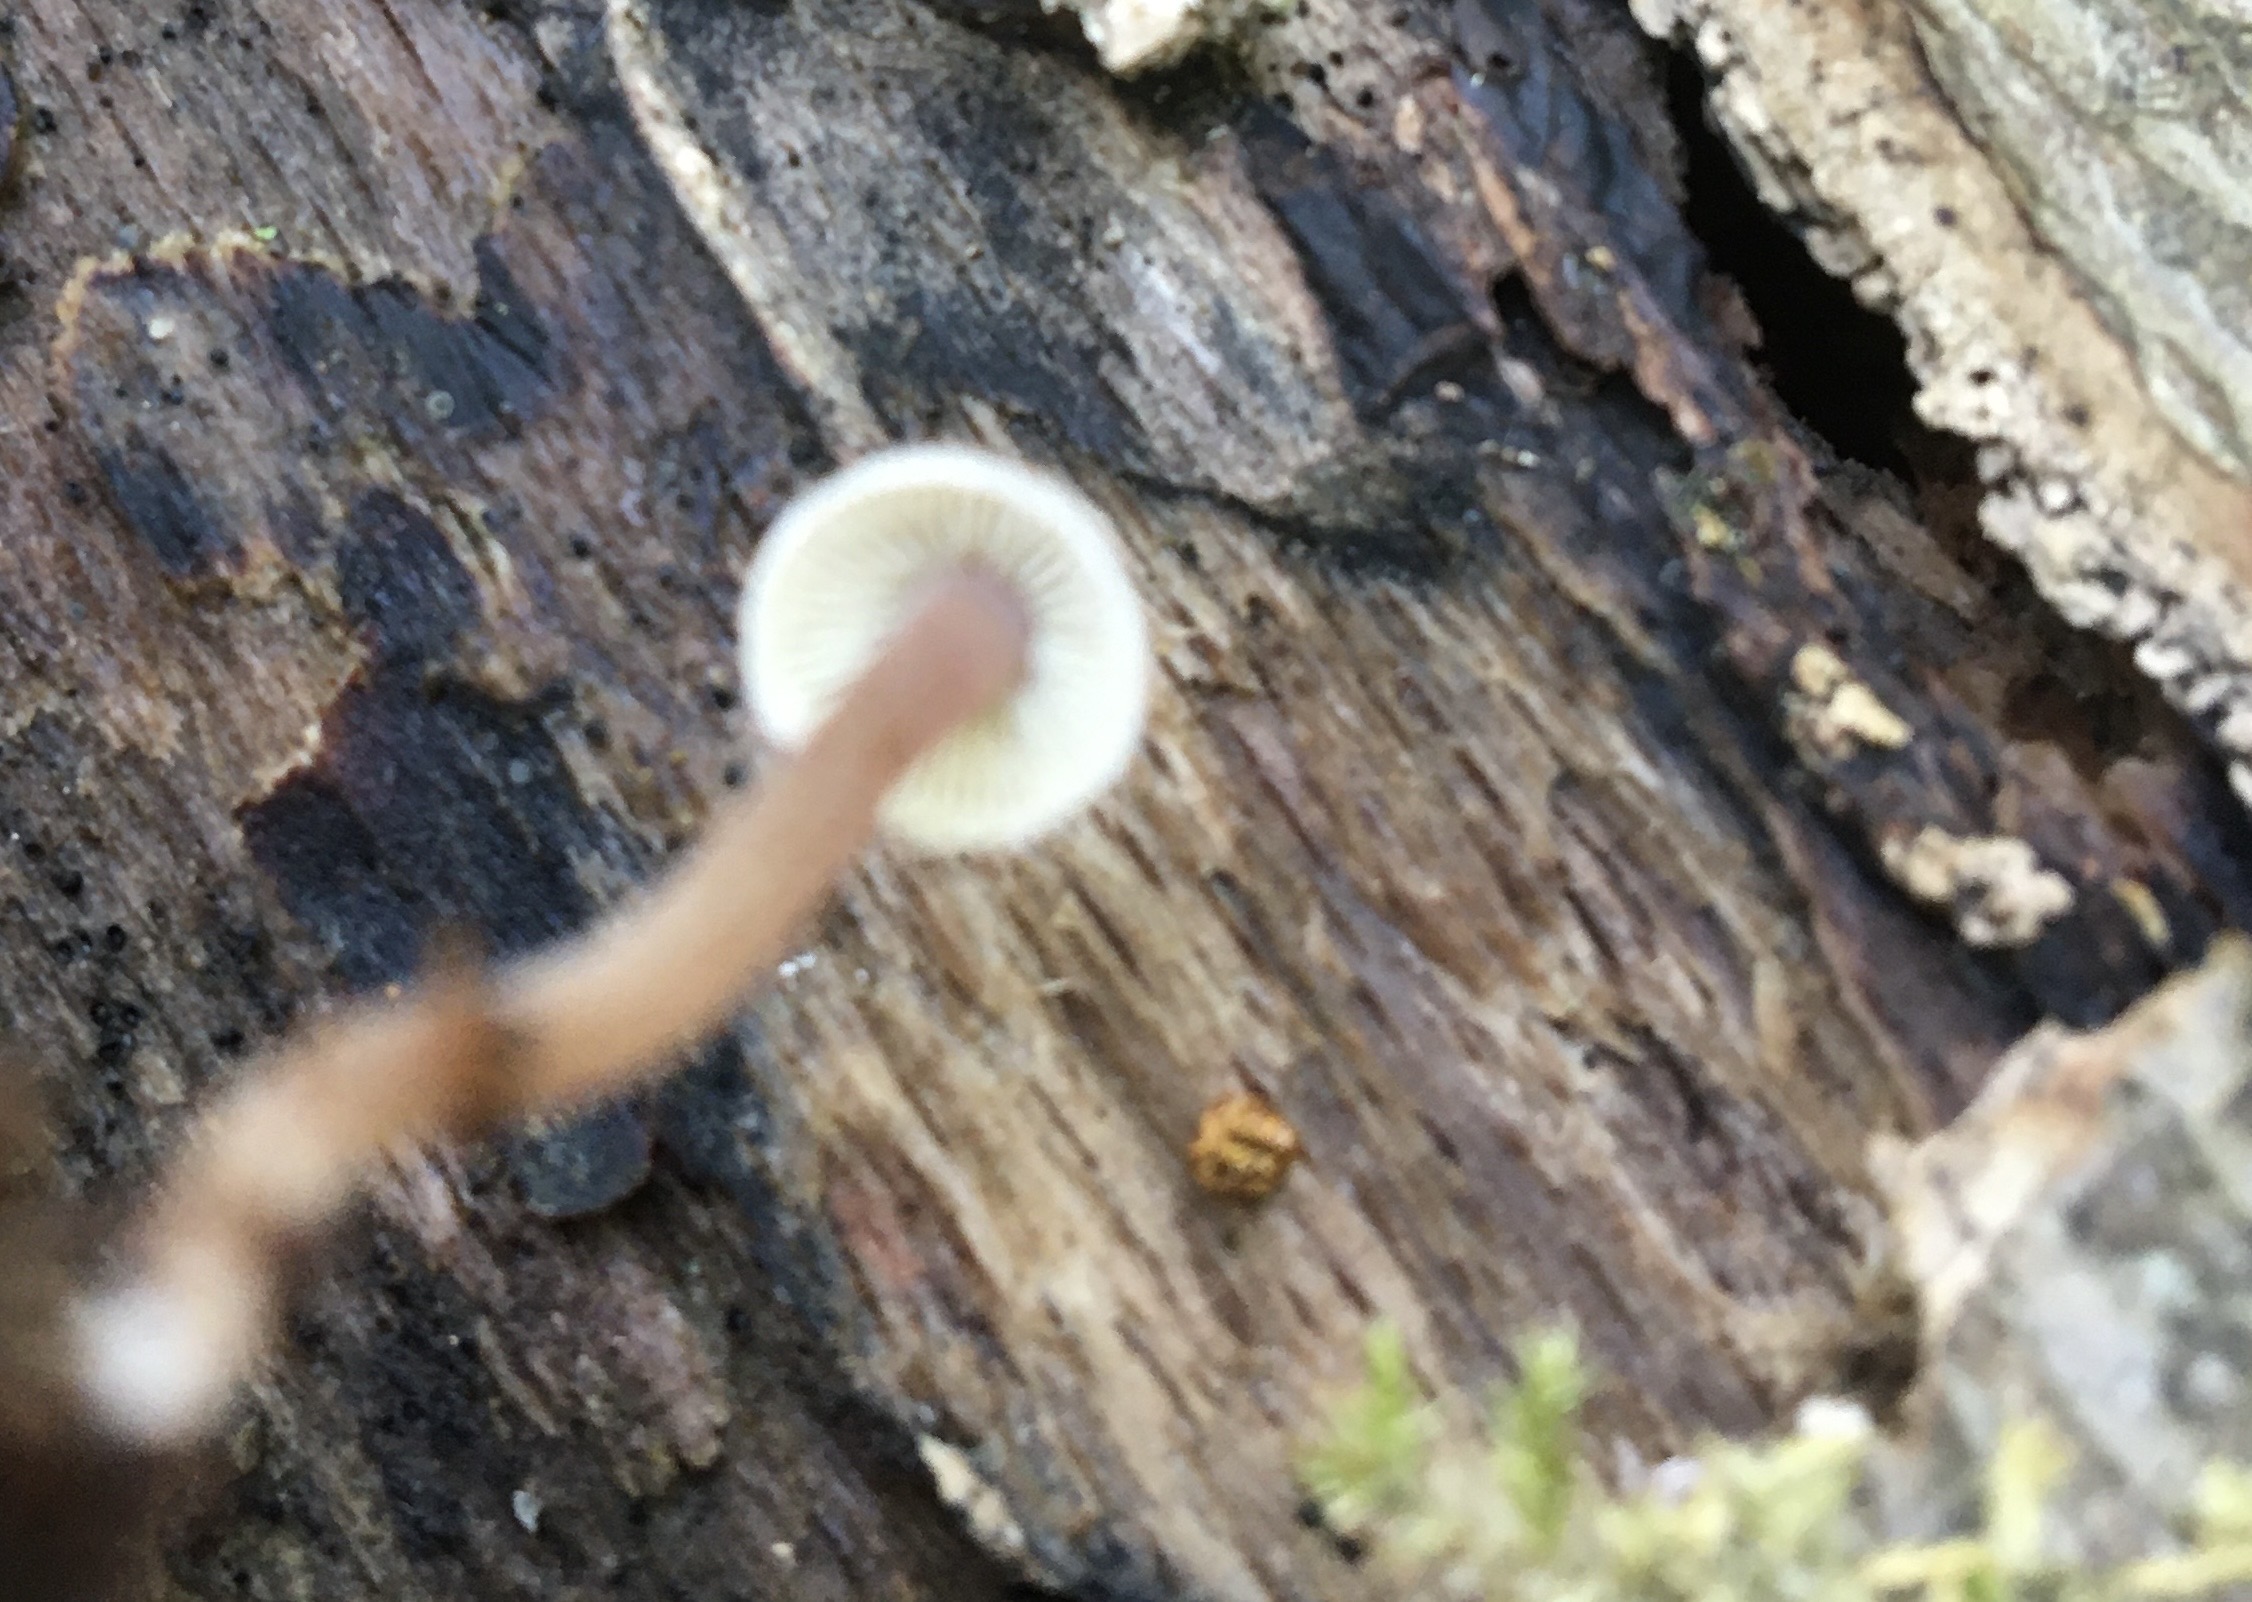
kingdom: Fungi
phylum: Basidiomycota
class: Agaricomycetes
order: Agaricales
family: Inocybaceae
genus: Inocybe
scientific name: Inocybe petiginosa
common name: liden trævlhat
